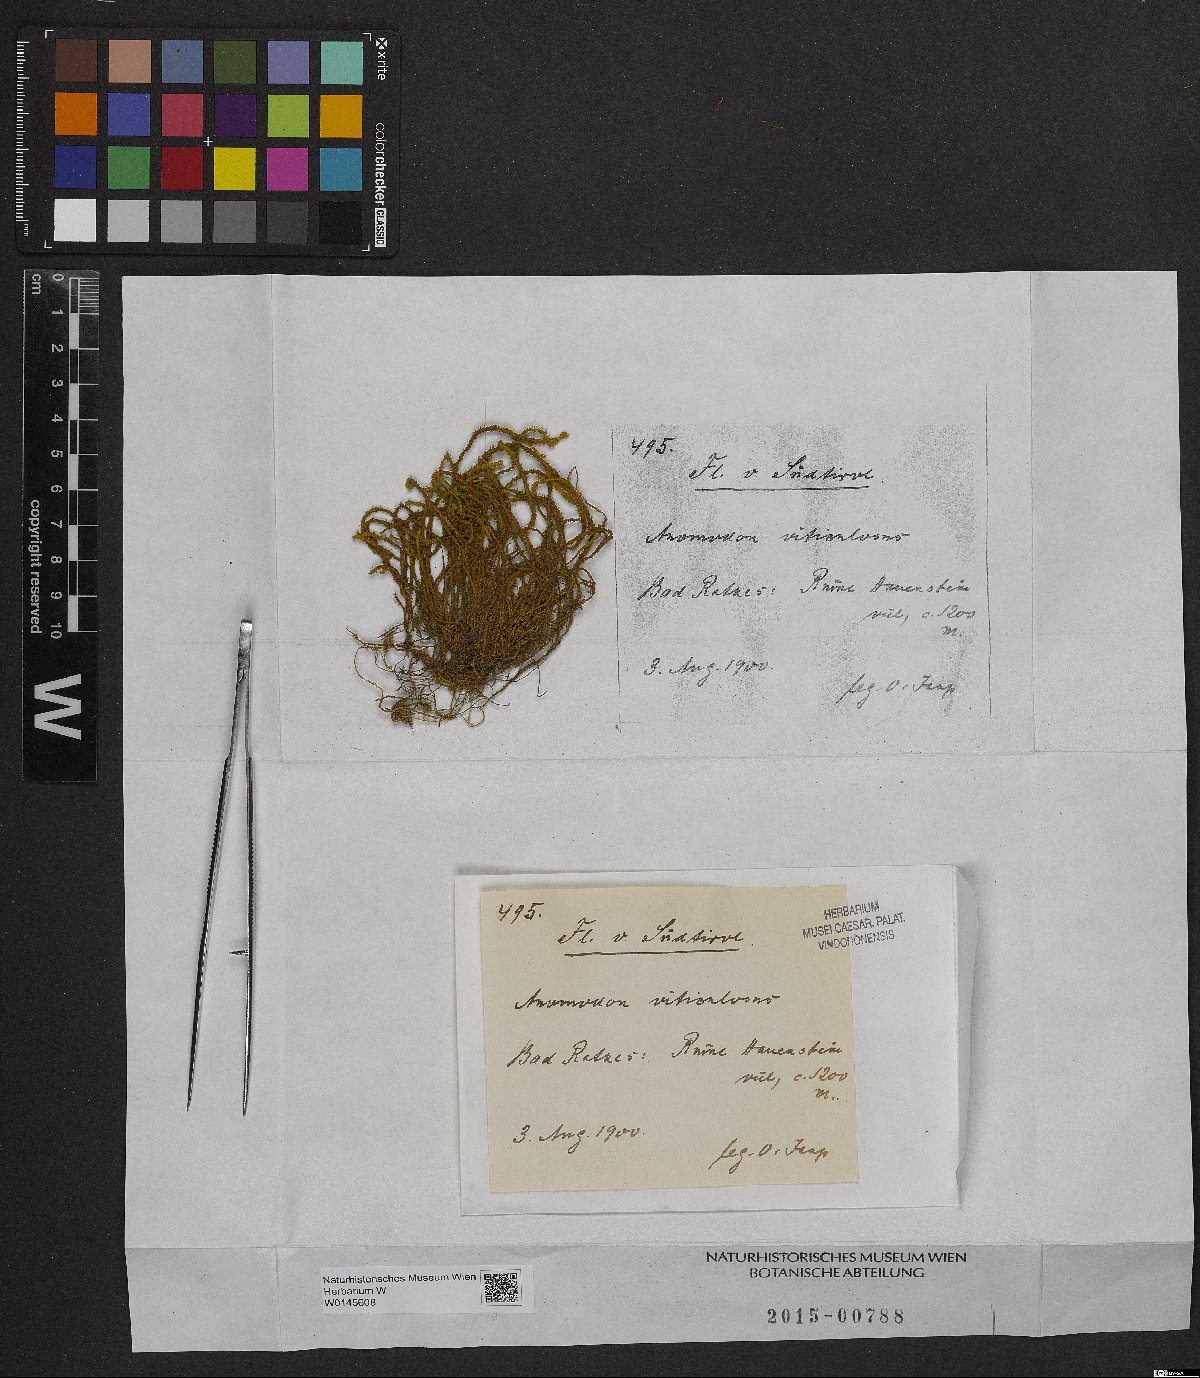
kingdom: Plantae
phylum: Bryophyta
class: Bryopsida
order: Hypnales
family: Anomodontaceae
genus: Anomodon
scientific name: Anomodon viticulosus
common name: Tall anomodon
